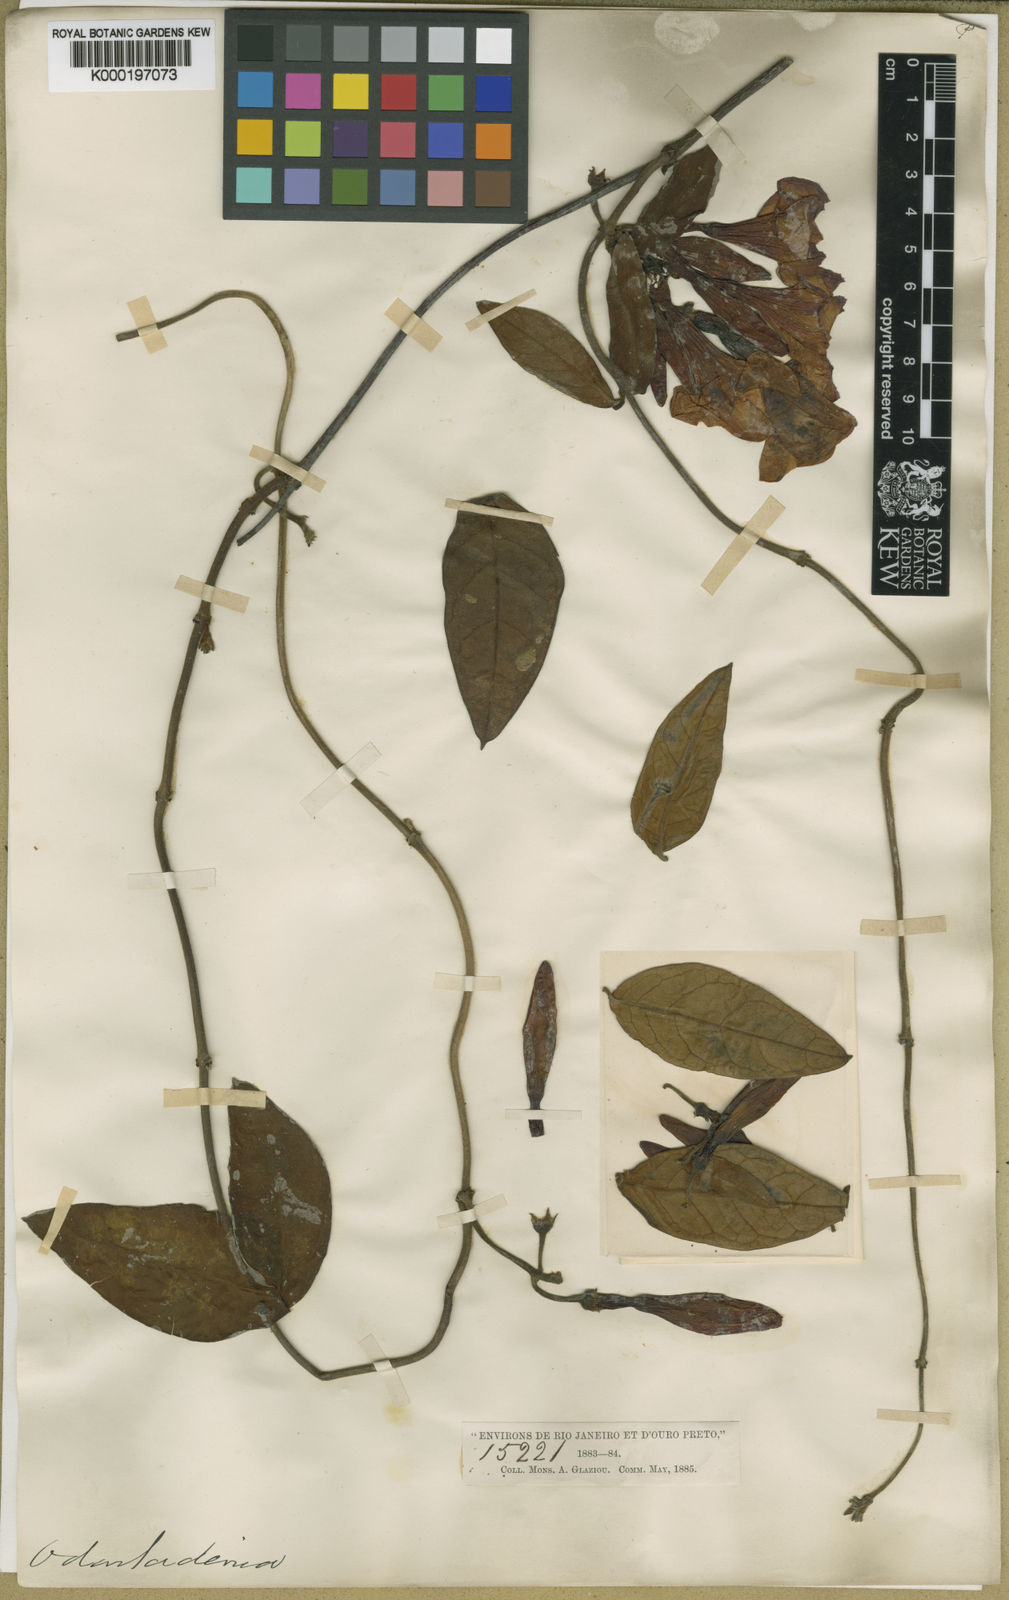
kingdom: Plantae
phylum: Tracheophyta
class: Magnoliopsida
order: Gentianales
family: Apocynaceae
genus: Temnadenia
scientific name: Temnadenia violacea
